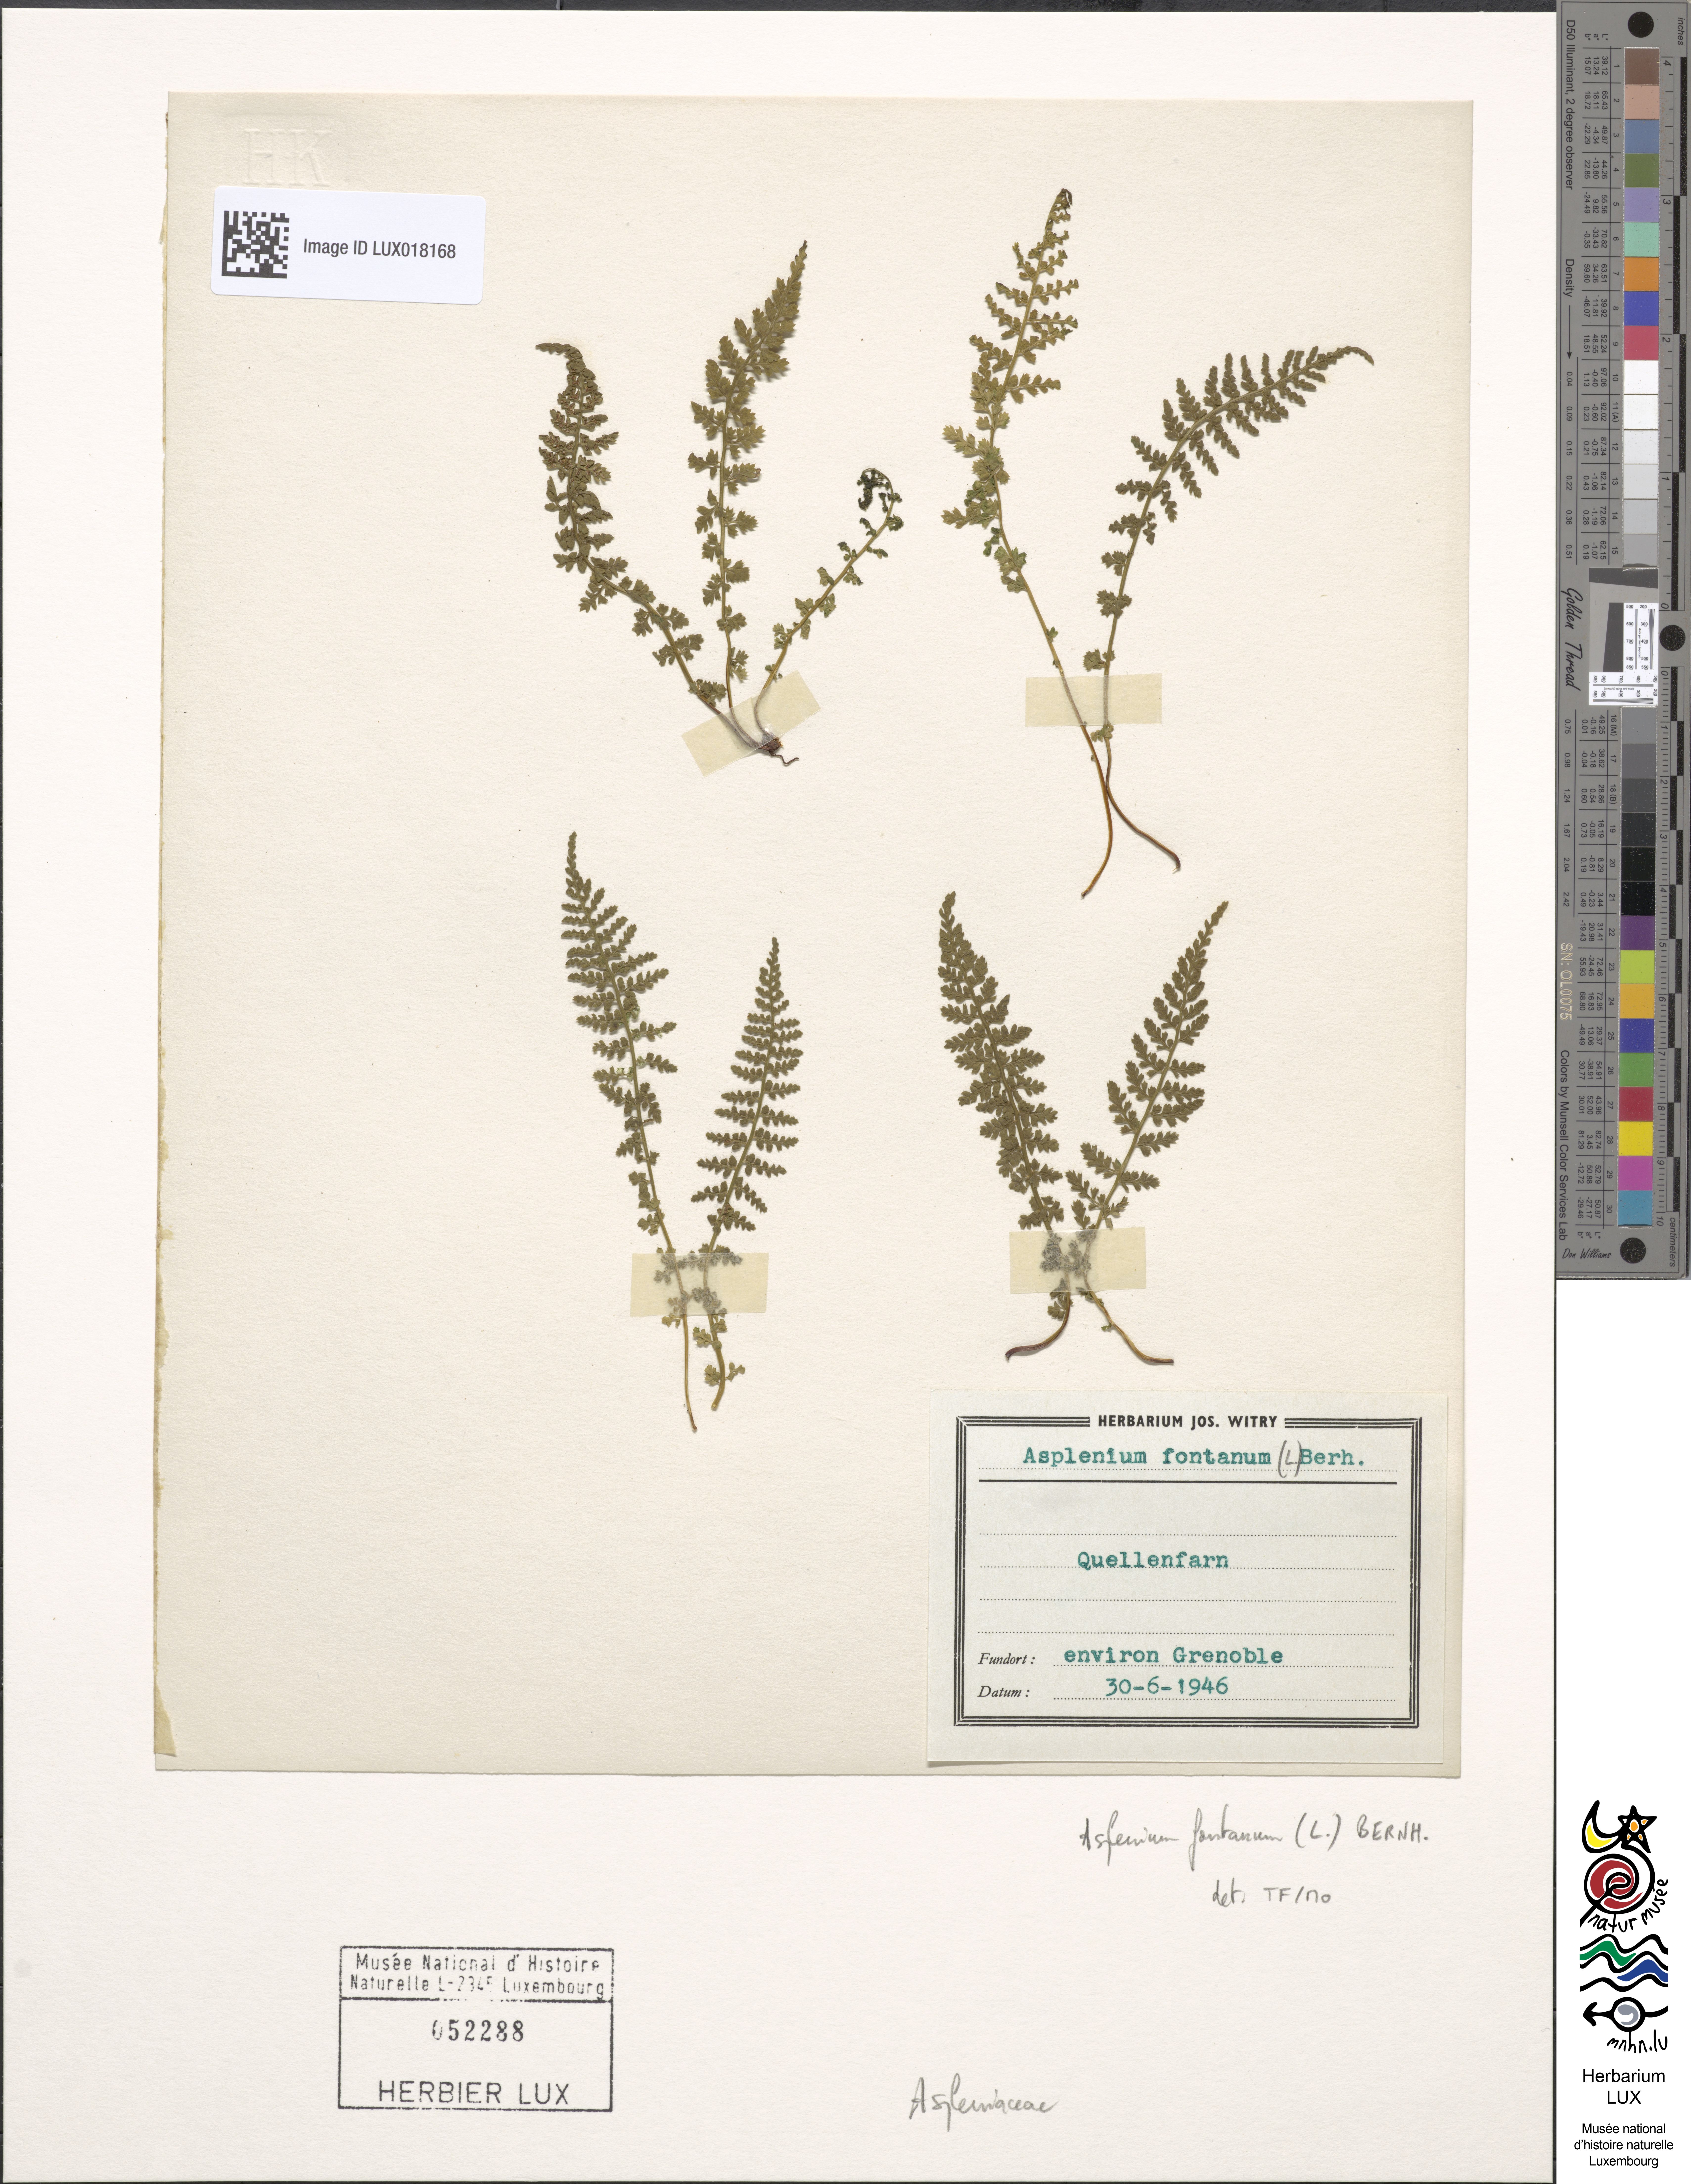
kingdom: Plantae
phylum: Tracheophyta
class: Polypodiopsida
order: Polypodiales
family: Aspleniaceae
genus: Asplenium
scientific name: Asplenium fontanum
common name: Fountain spleenwort
